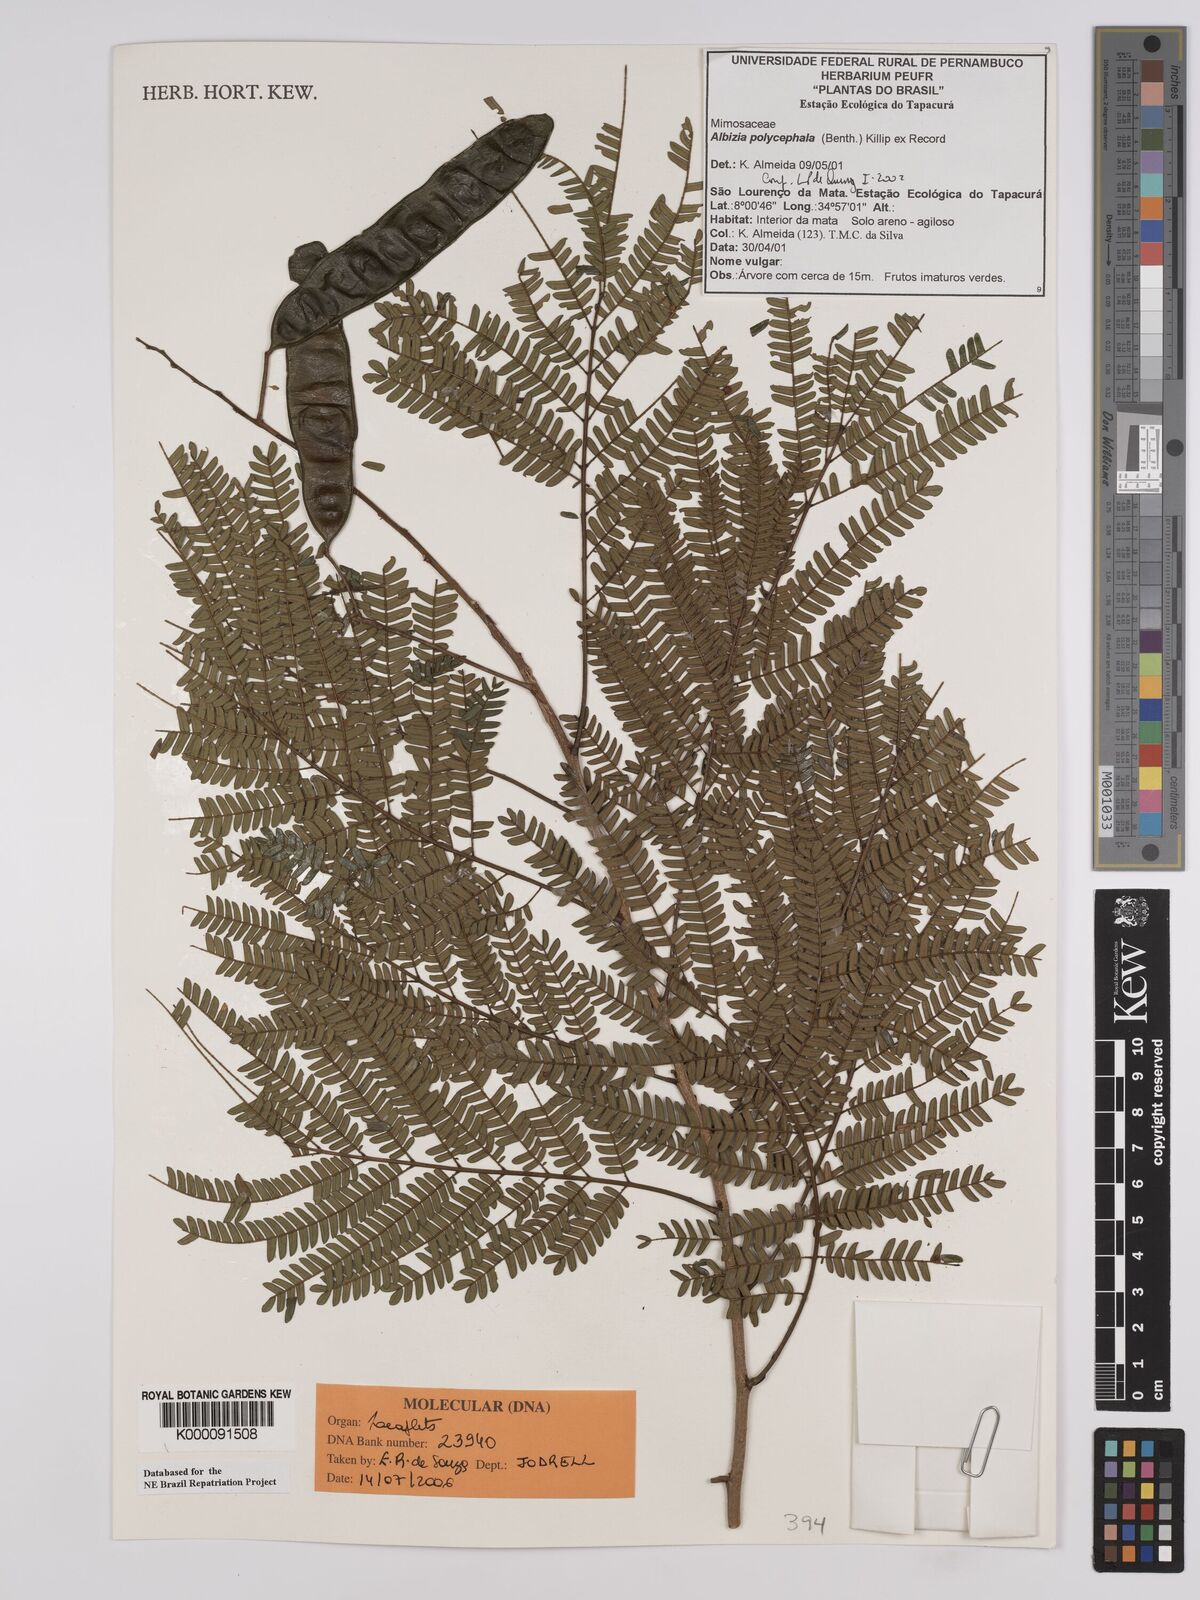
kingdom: Plantae
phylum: Tracheophyta
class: Magnoliopsida
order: Fabales
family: Fabaceae
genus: Albizia
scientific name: Albizia
